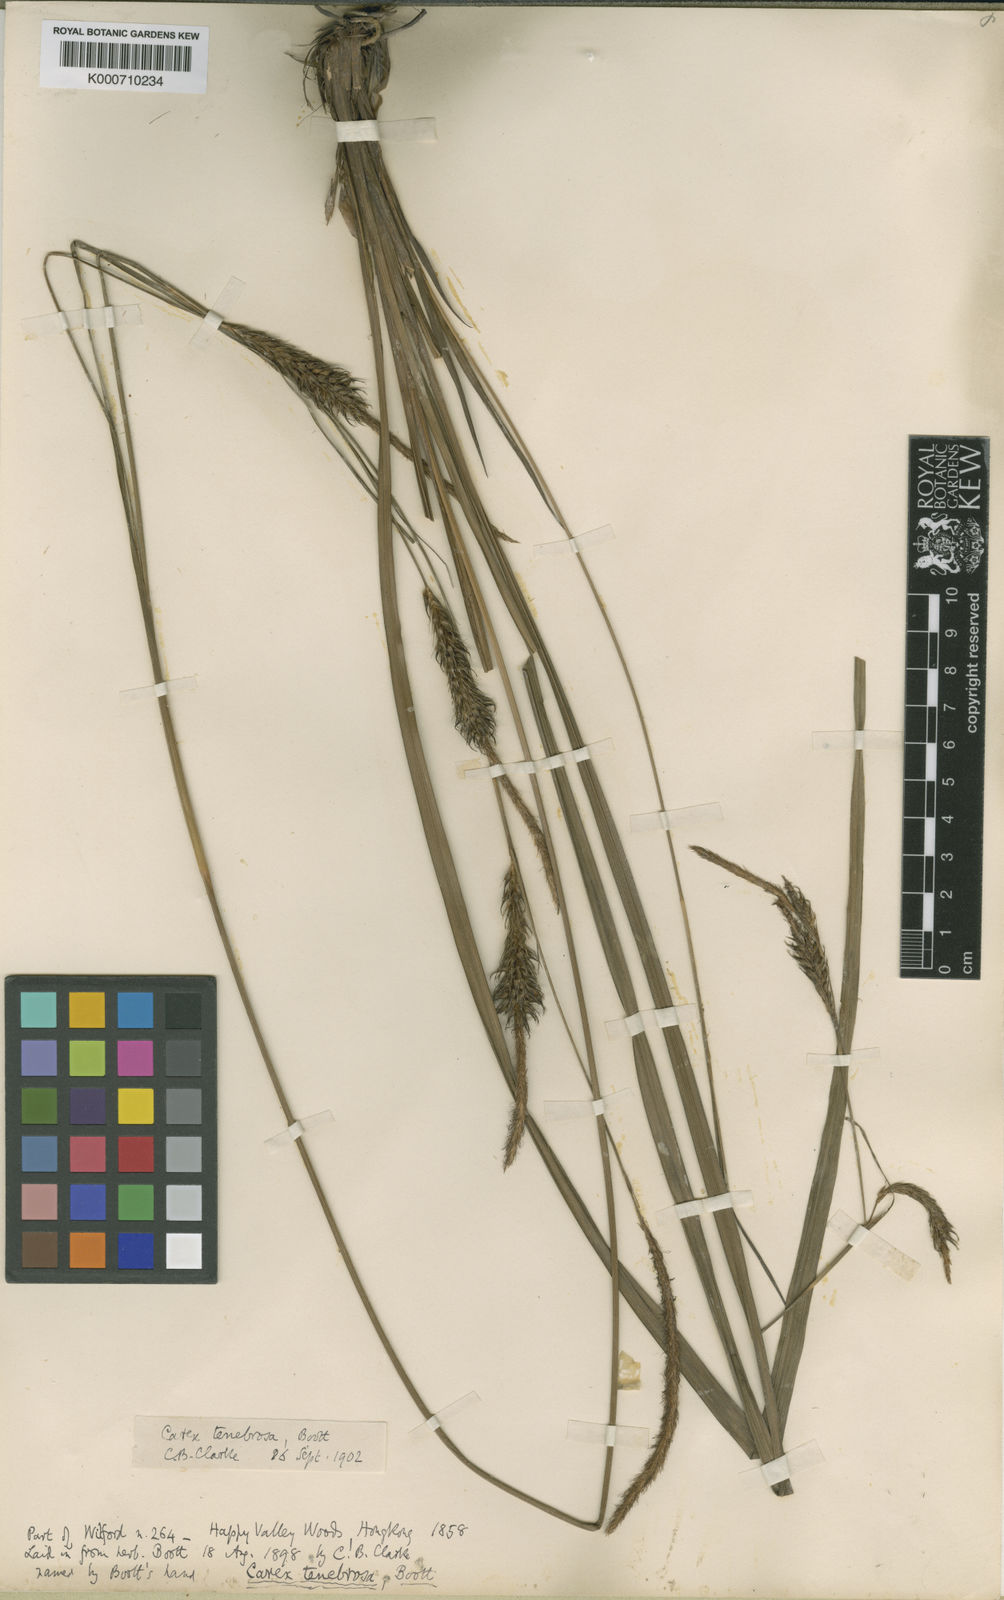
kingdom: Plantae
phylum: Tracheophyta
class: Liliopsida
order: Poales
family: Cyperaceae
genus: Carex
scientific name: Carex tenebrosa
